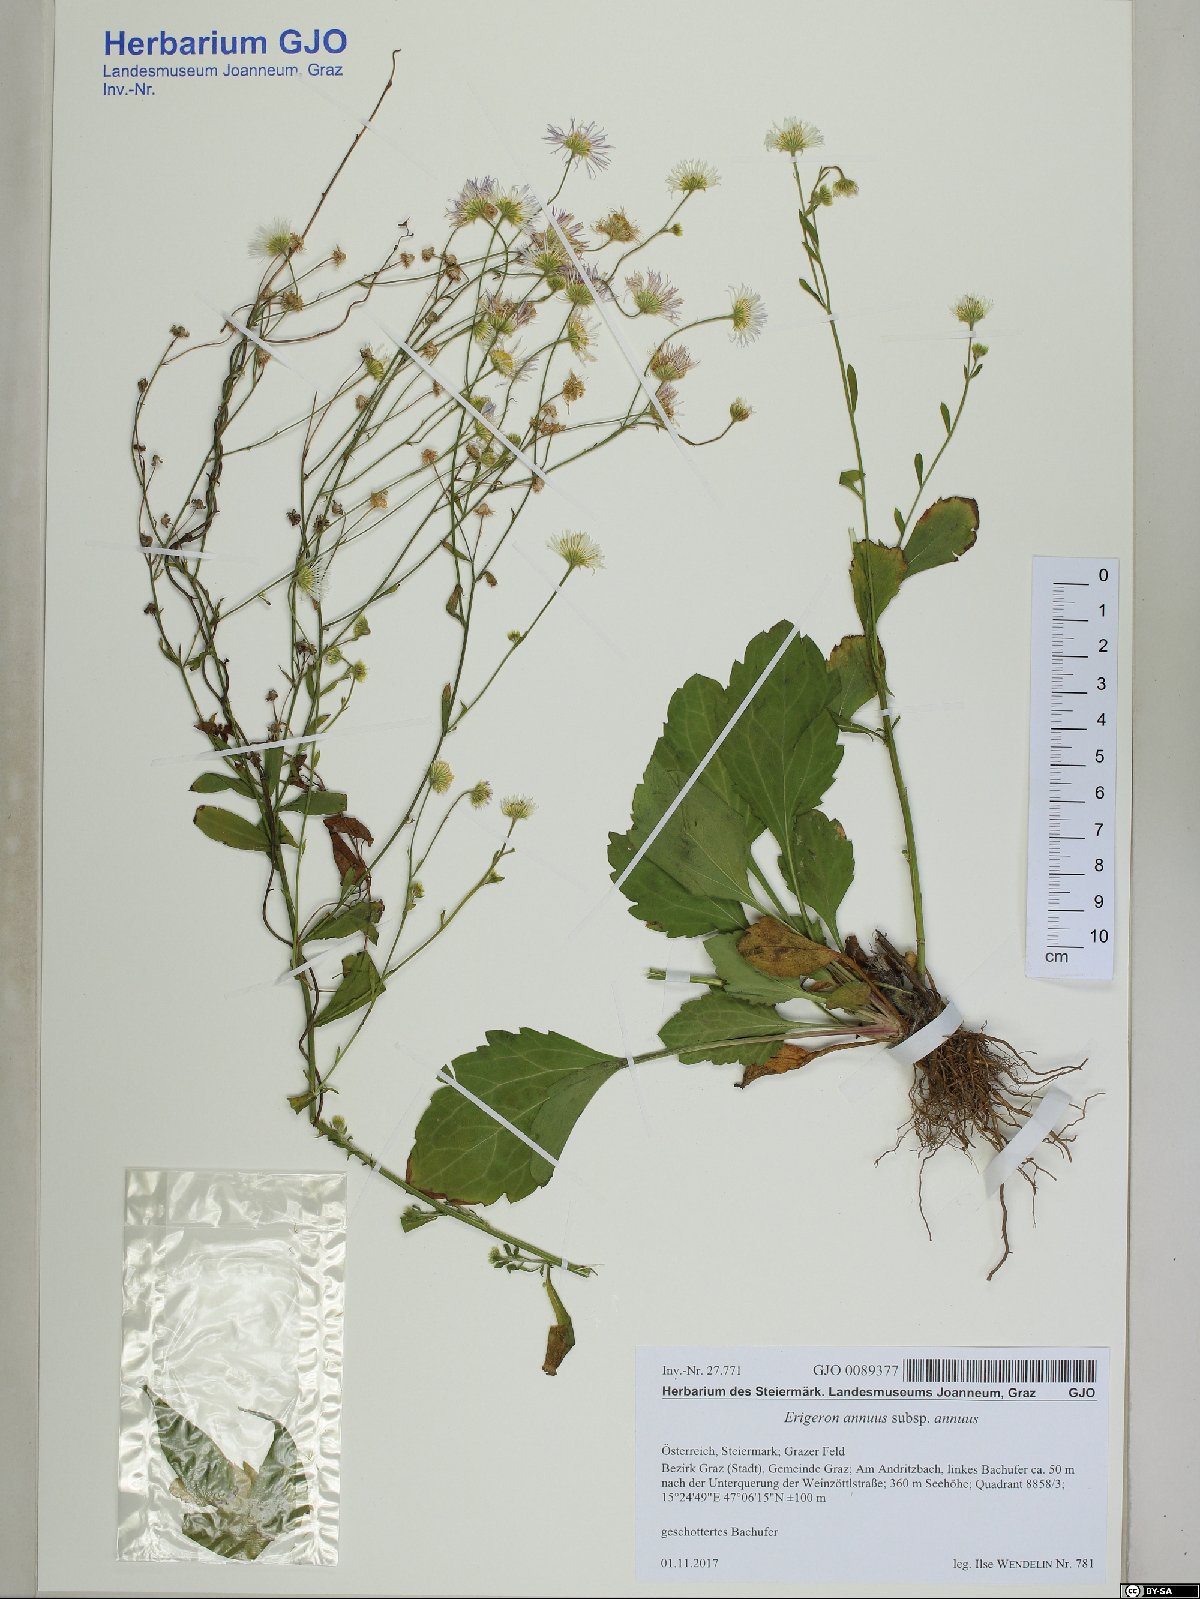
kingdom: Plantae
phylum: Tracheophyta
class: Magnoliopsida
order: Asterales
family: Asteraceae
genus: Erigeron
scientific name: Erigeron annuus
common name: Tall fleabane
